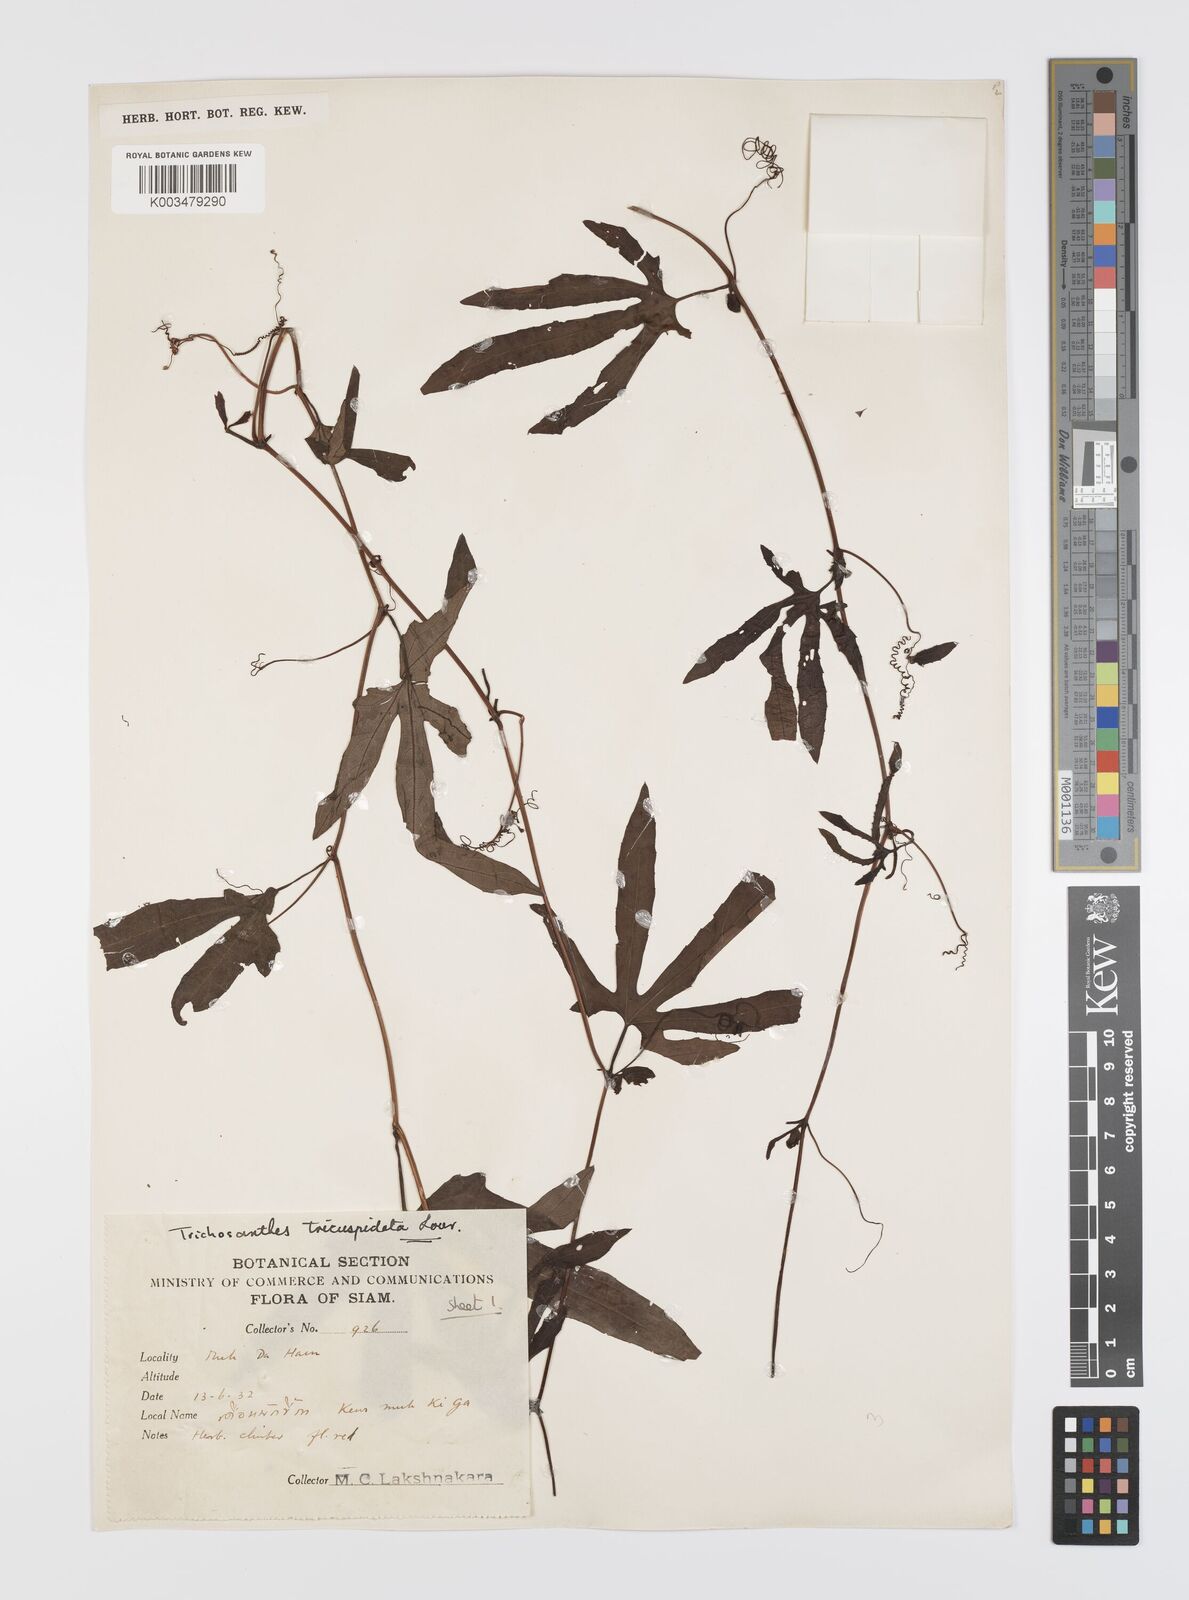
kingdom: Plantae
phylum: Tracheophyta
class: Magnoliopsida
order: Cucurbitales
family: Cucurbitaceae
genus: Trichosanthes
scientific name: Trichosanthes rubriflos
